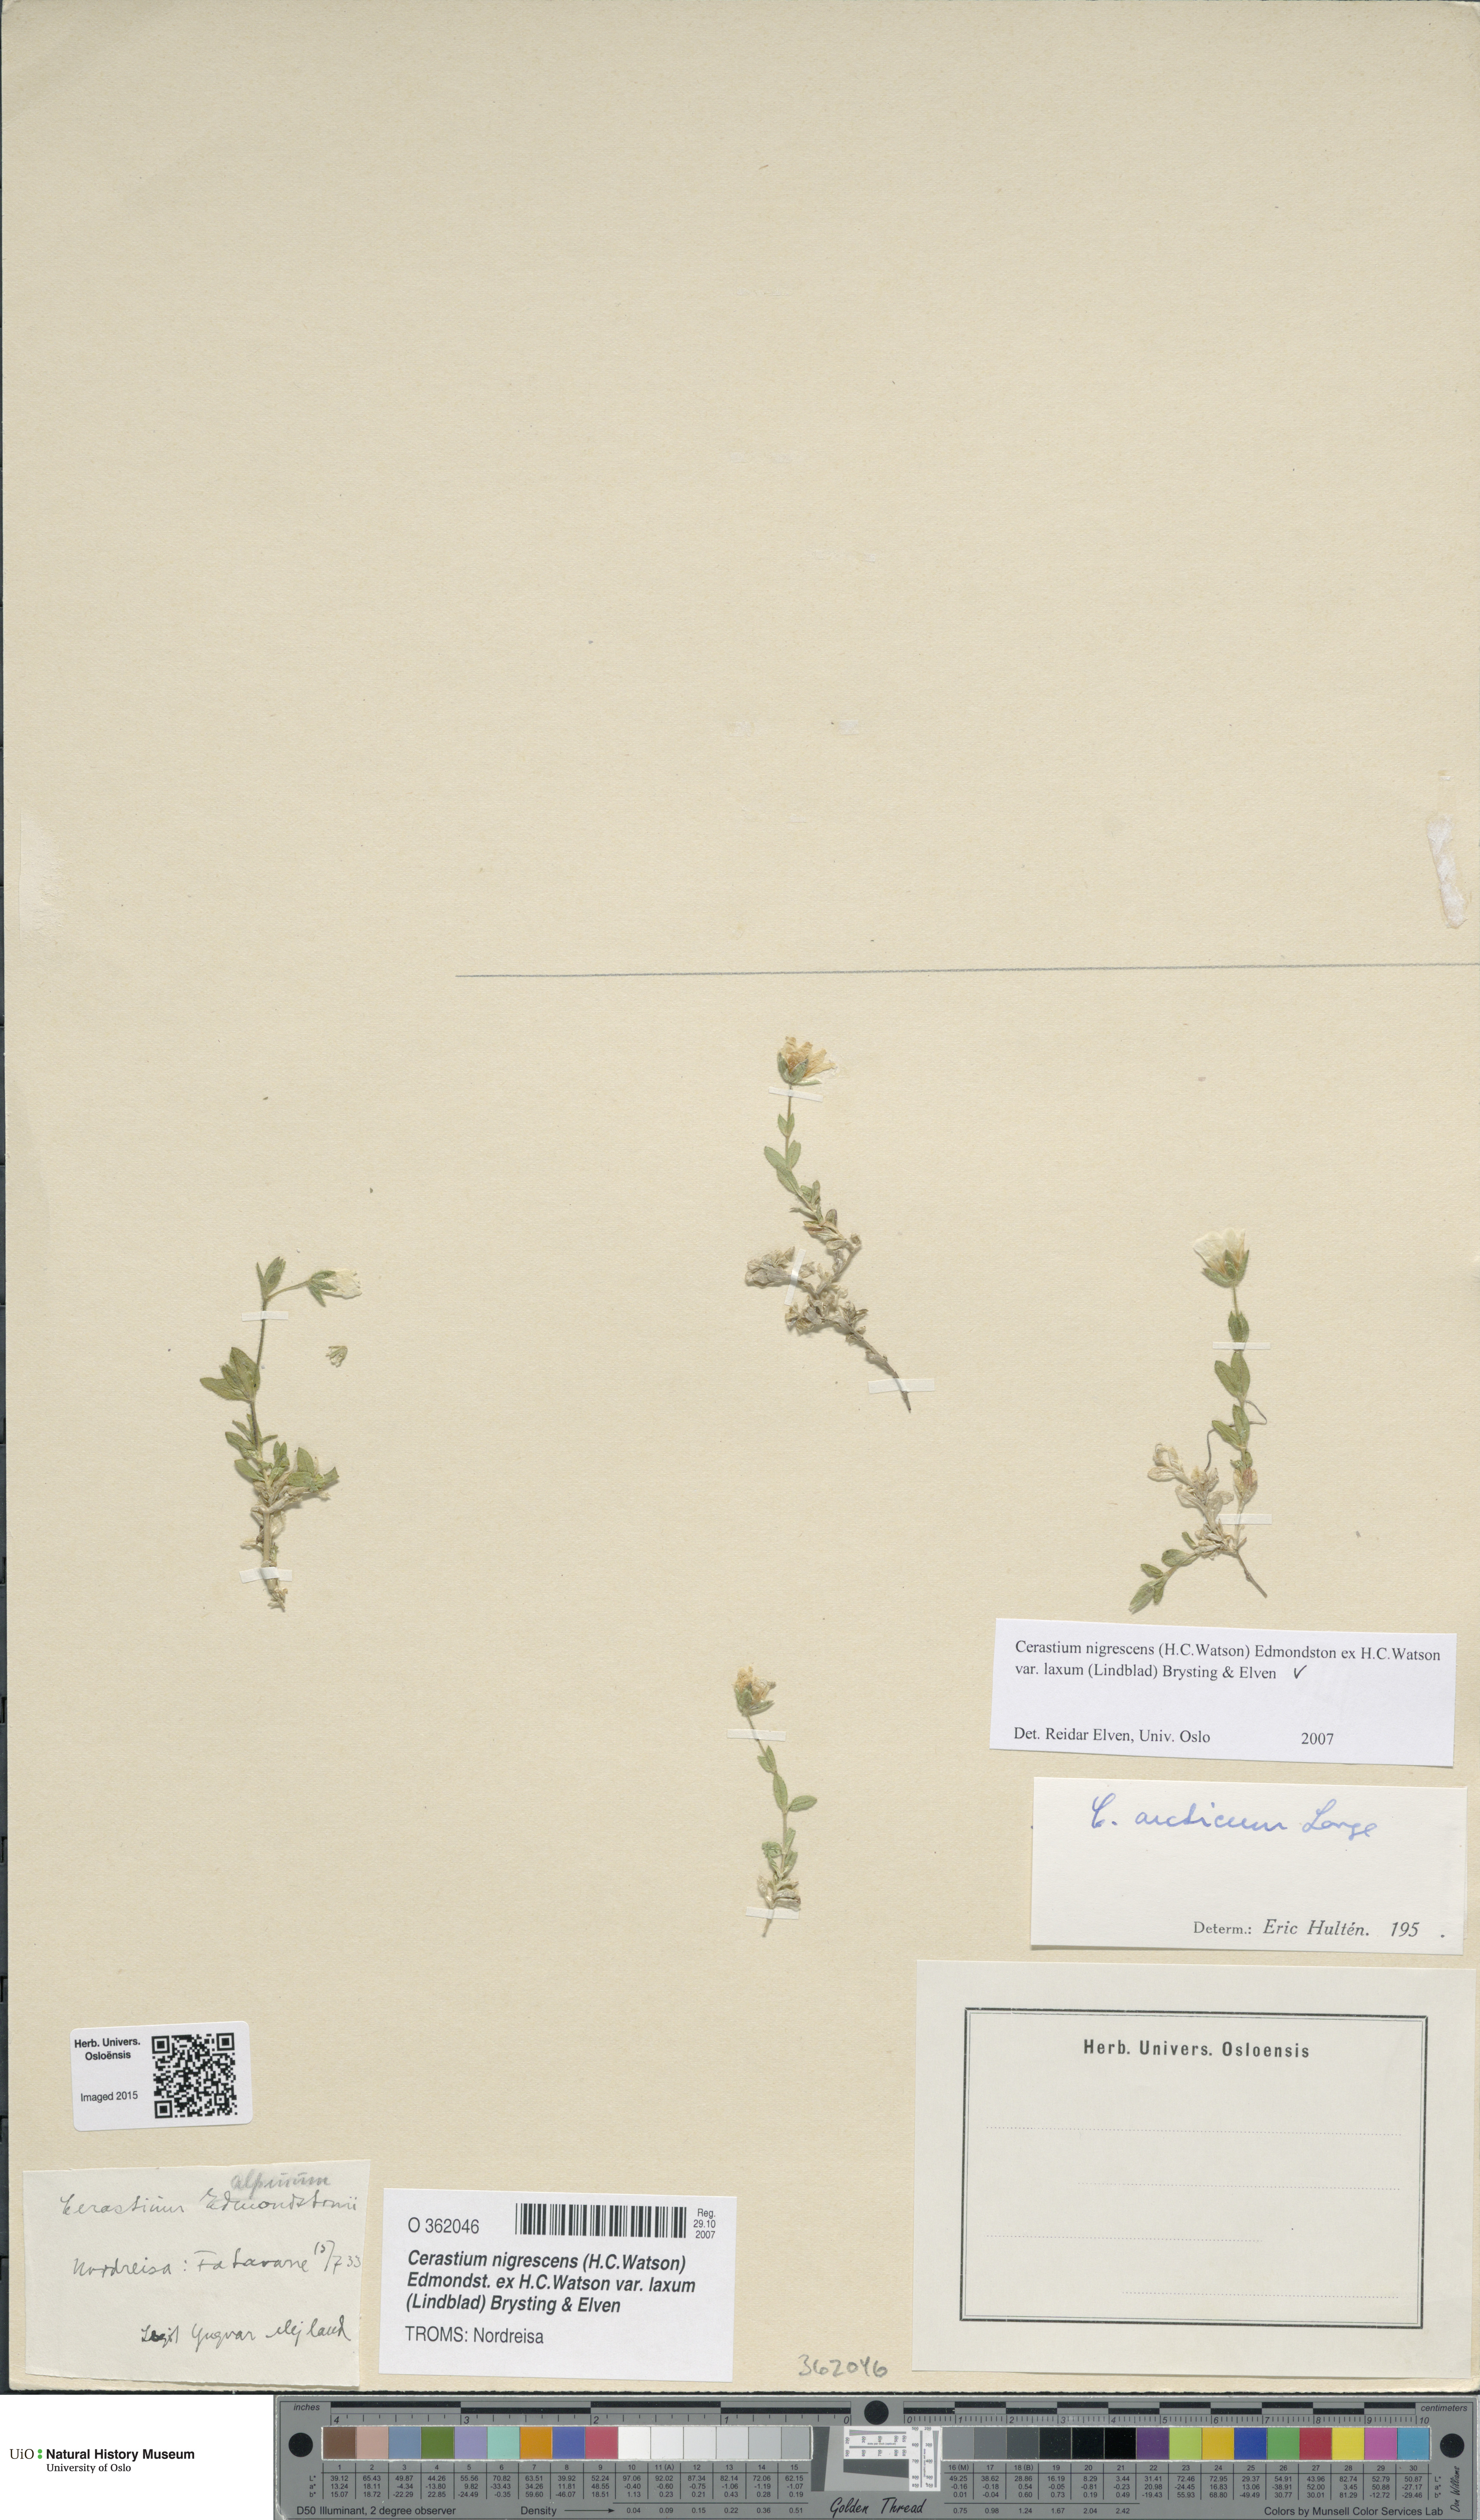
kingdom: Plantae
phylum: Tracheophyta
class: Magnoliopsida
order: Caryophyllales
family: Caryophyllaceae
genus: Cerastium
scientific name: Cerastium nigrescens
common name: Shetland mouse-ear
